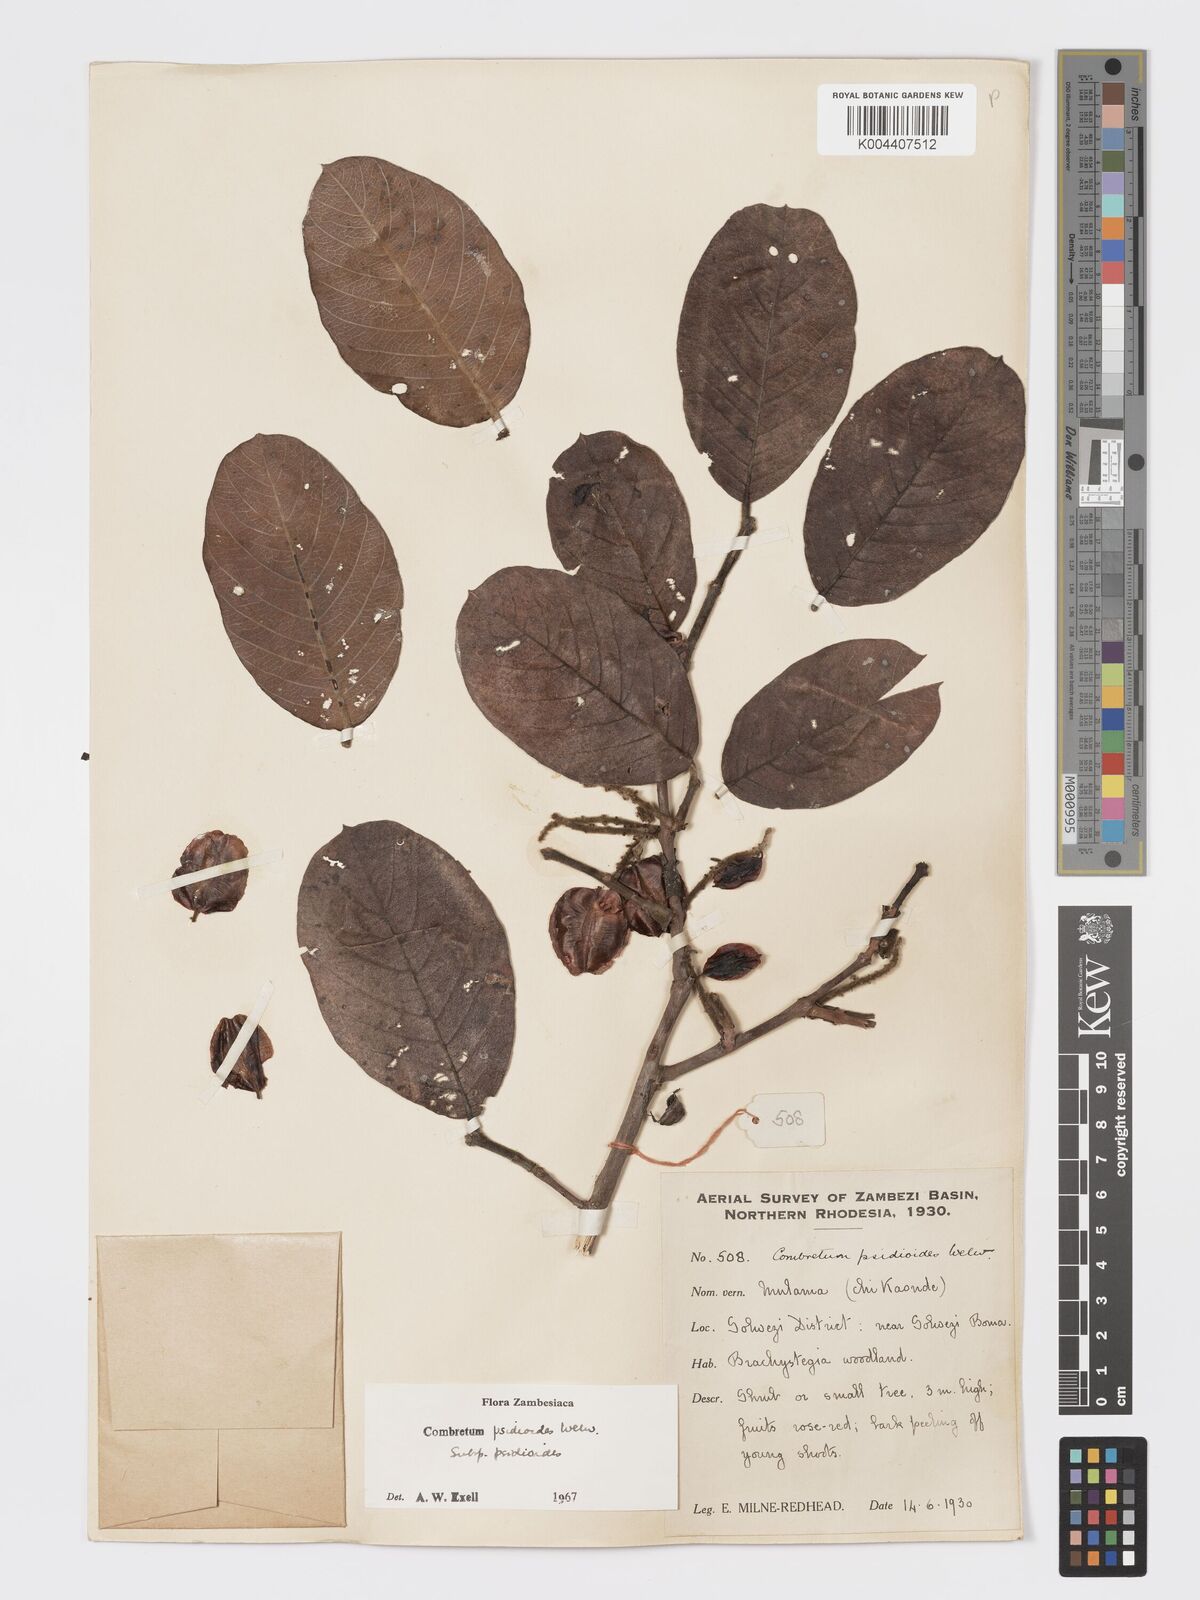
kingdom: Plantae
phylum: Tracheophyta
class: Magnoliopsida
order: Myrtales
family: Combretaceae
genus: Combretum
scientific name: Combretum psidioides
